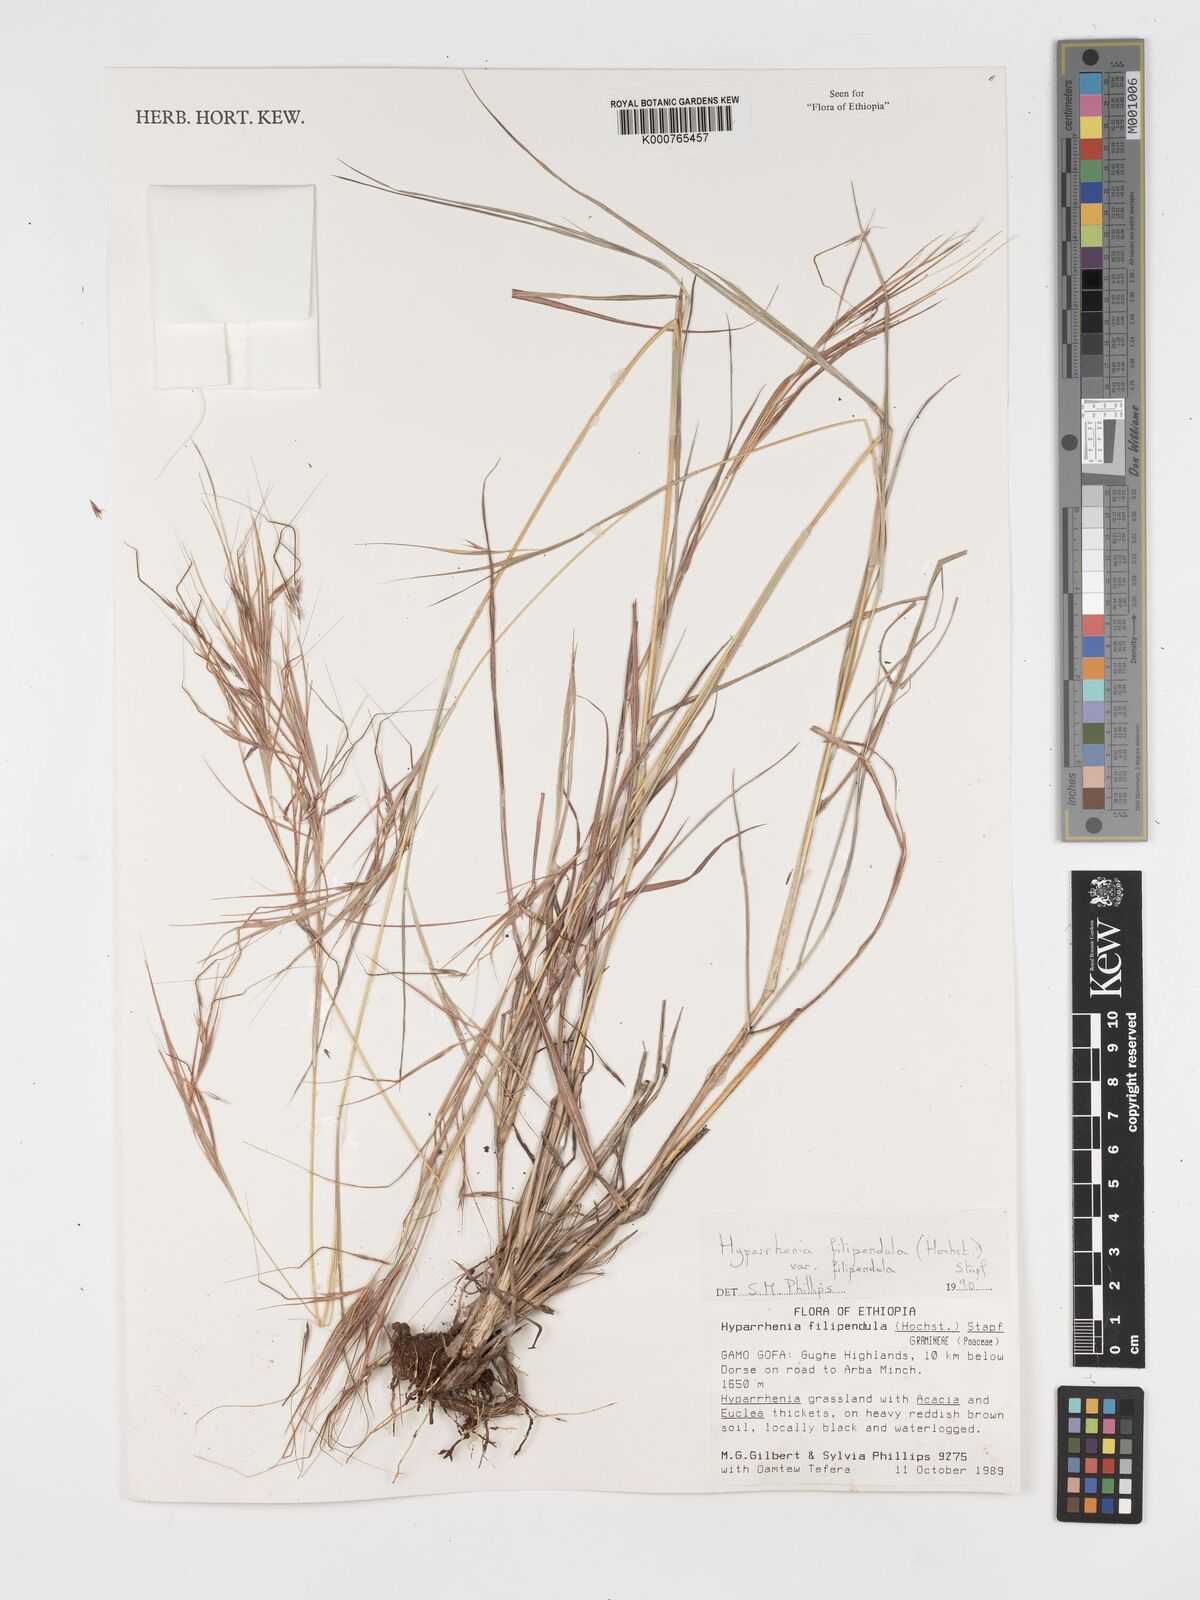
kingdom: Plantae
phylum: Tracheophyta
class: Liliopsida
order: Poales
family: Poaceae
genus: Hyparrhenia
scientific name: Hyparrhenia filipendula
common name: Tambookie grass
